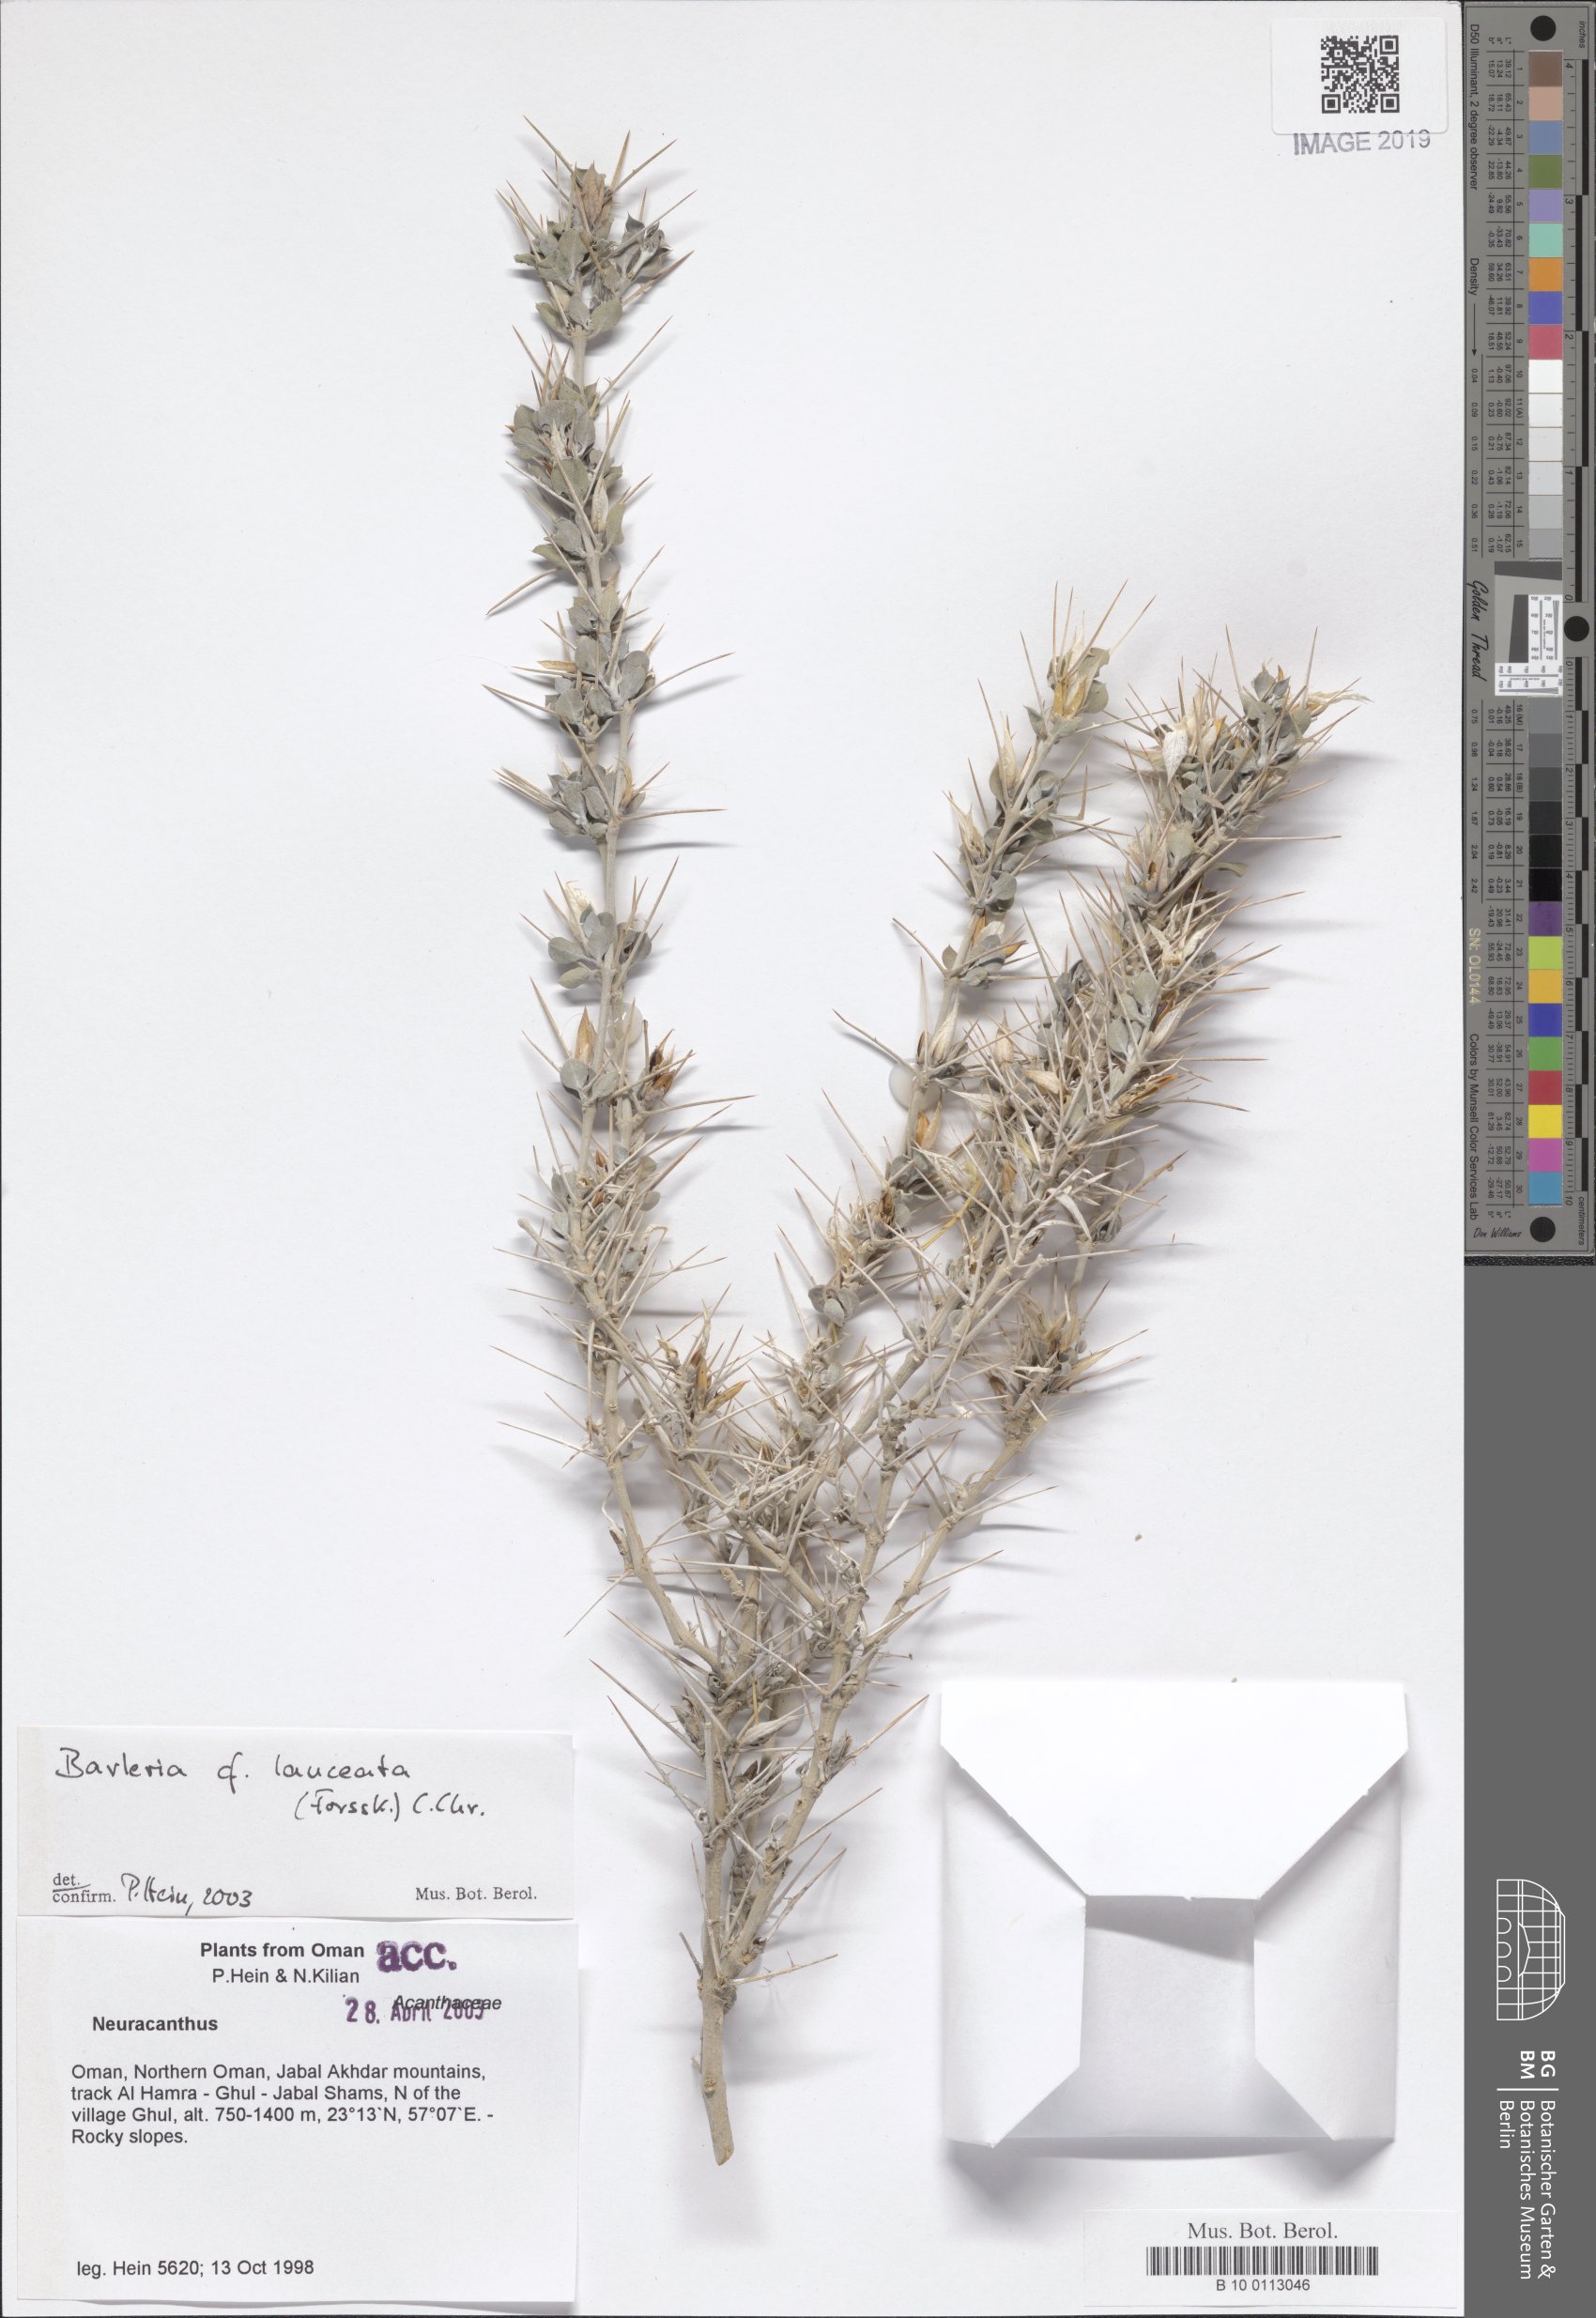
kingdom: Plantae
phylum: Tracheophyta
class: Magnoliopsida
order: Lamiales
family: Acanthaceae
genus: Barleria
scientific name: Barleria lanceata
